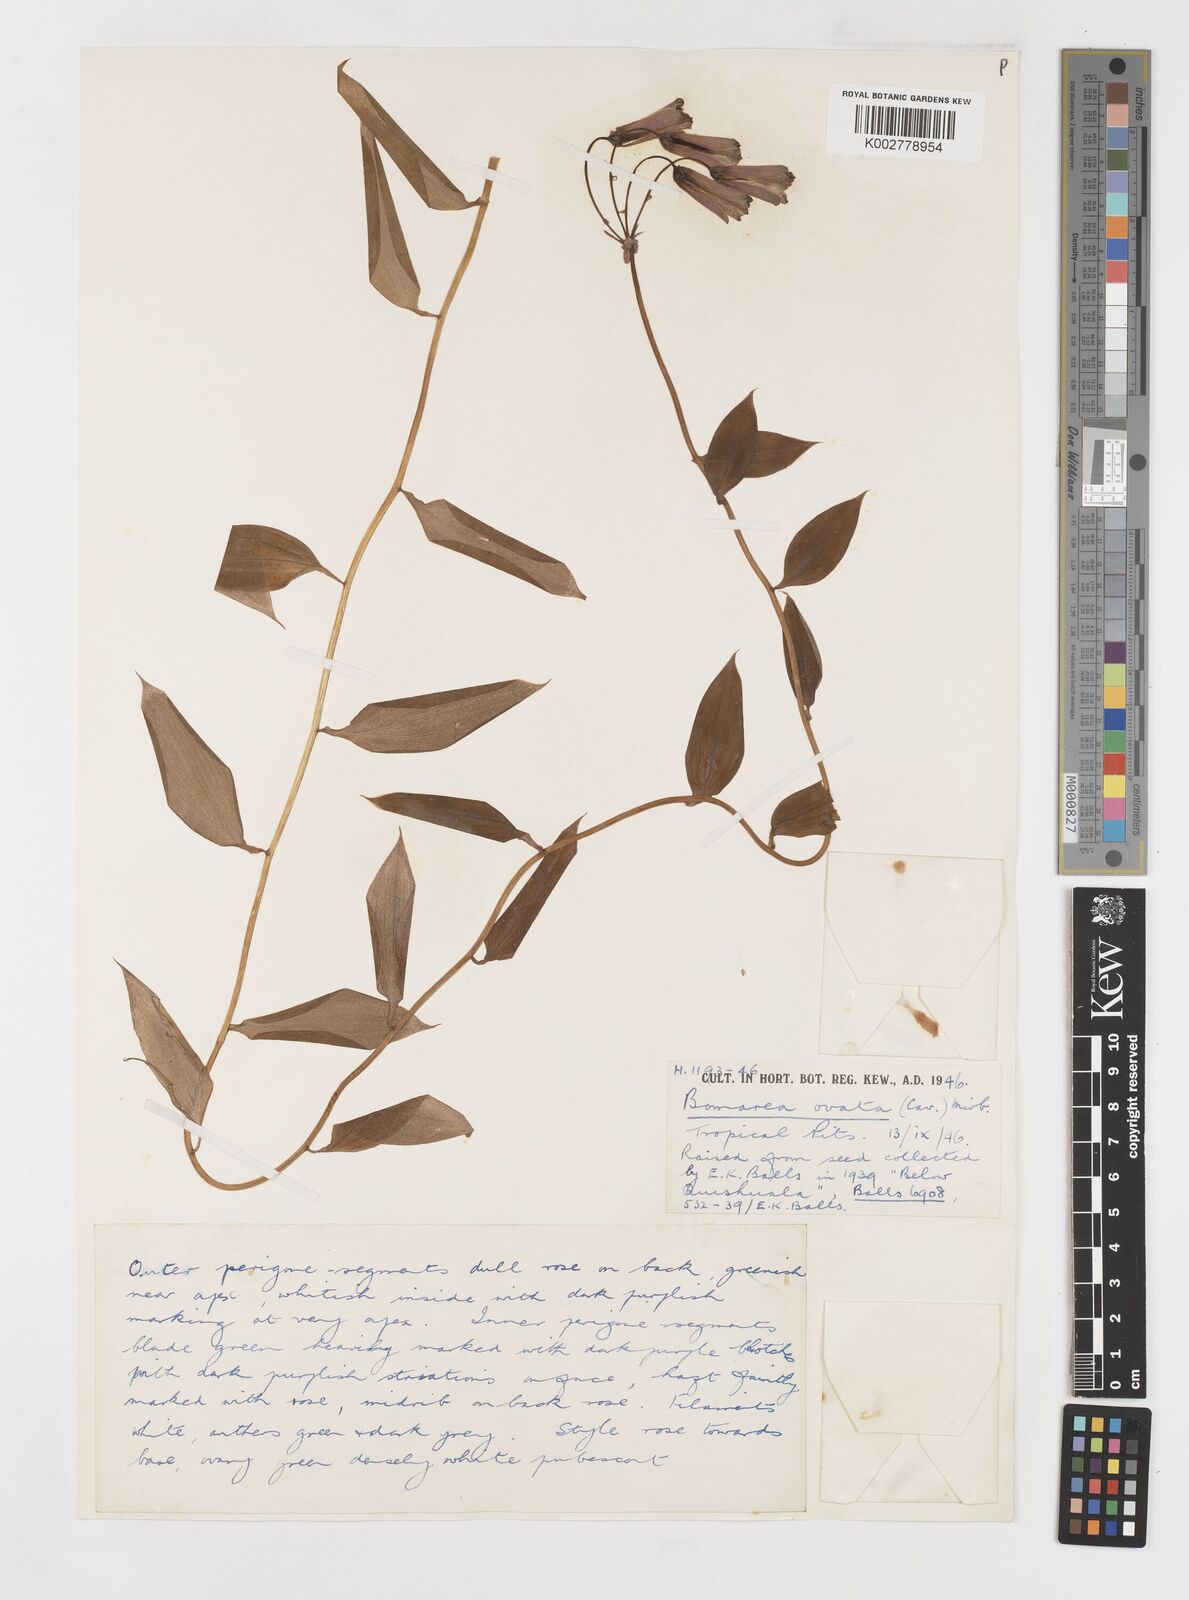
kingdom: Plantae
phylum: Tracheophyta
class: Liliopsida
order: Liliales
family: Alstroemeriaceae
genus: Bomarea
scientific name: Bomarea ovata
